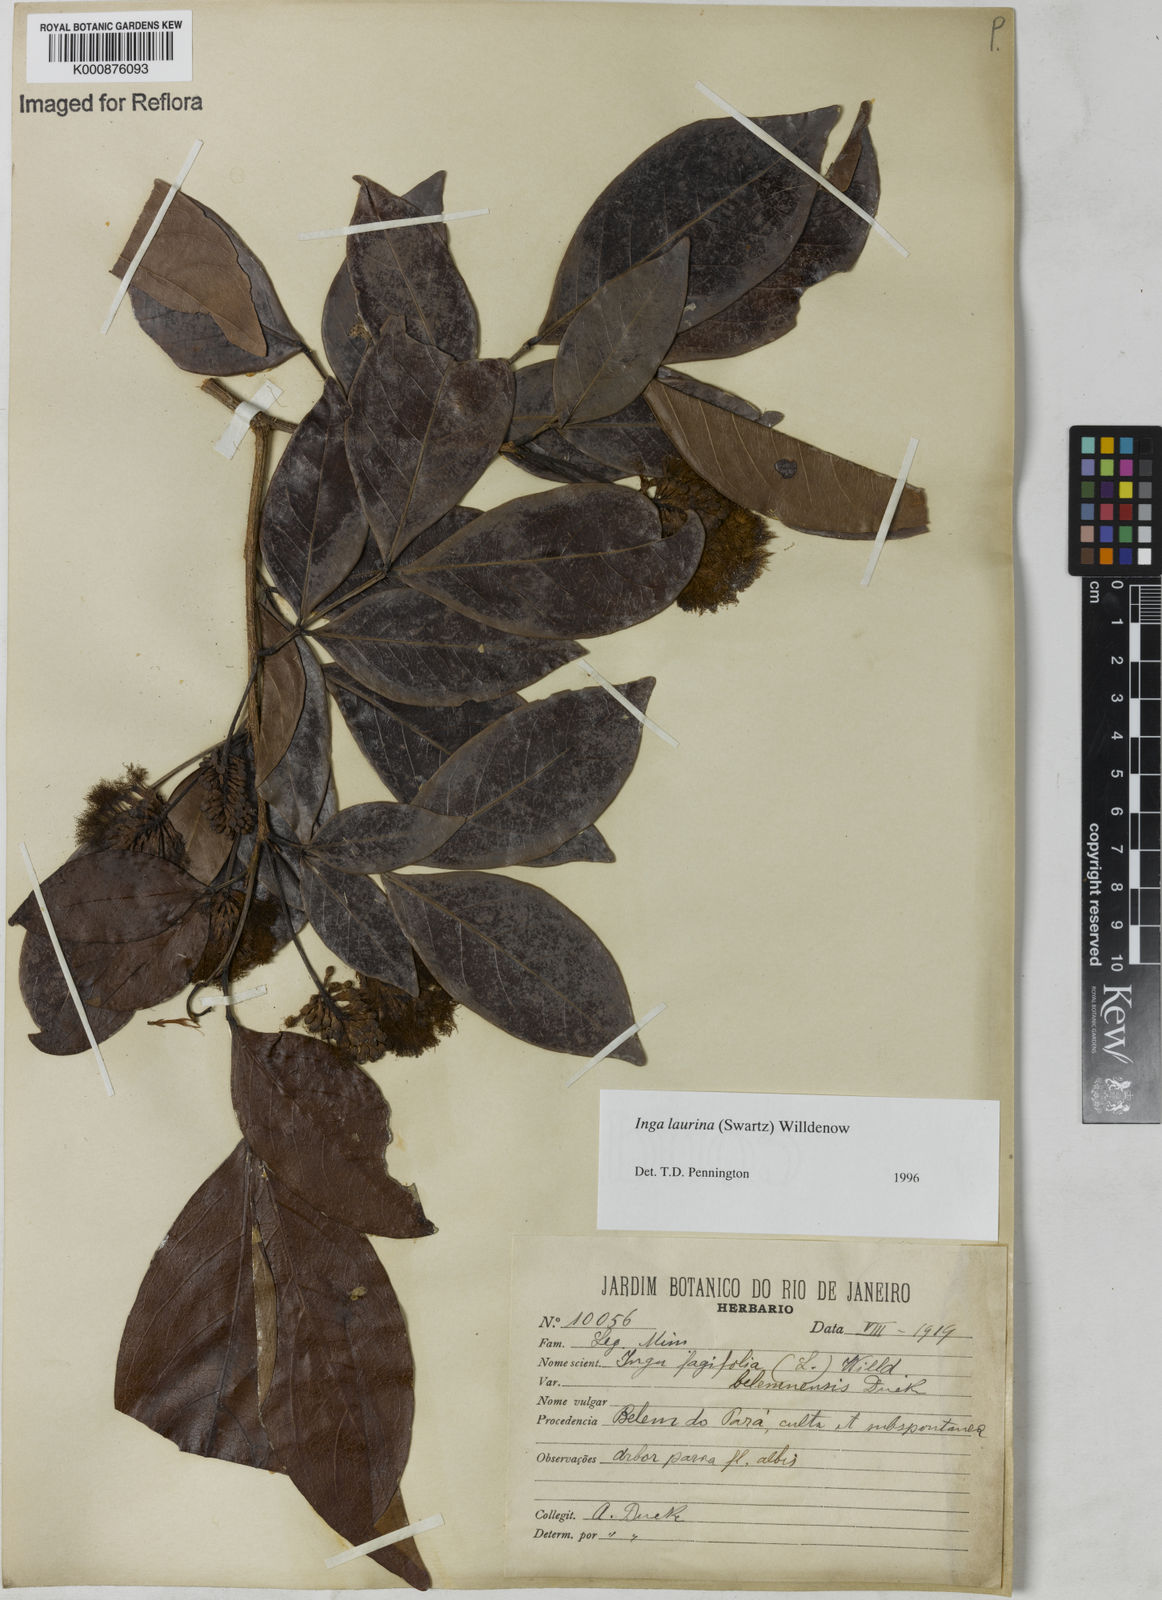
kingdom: Plantae
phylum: Tracheophyta
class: Magnoliopsida
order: Fabales
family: Fabaceae
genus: Inga
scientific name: Inga laurina
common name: Red wood
